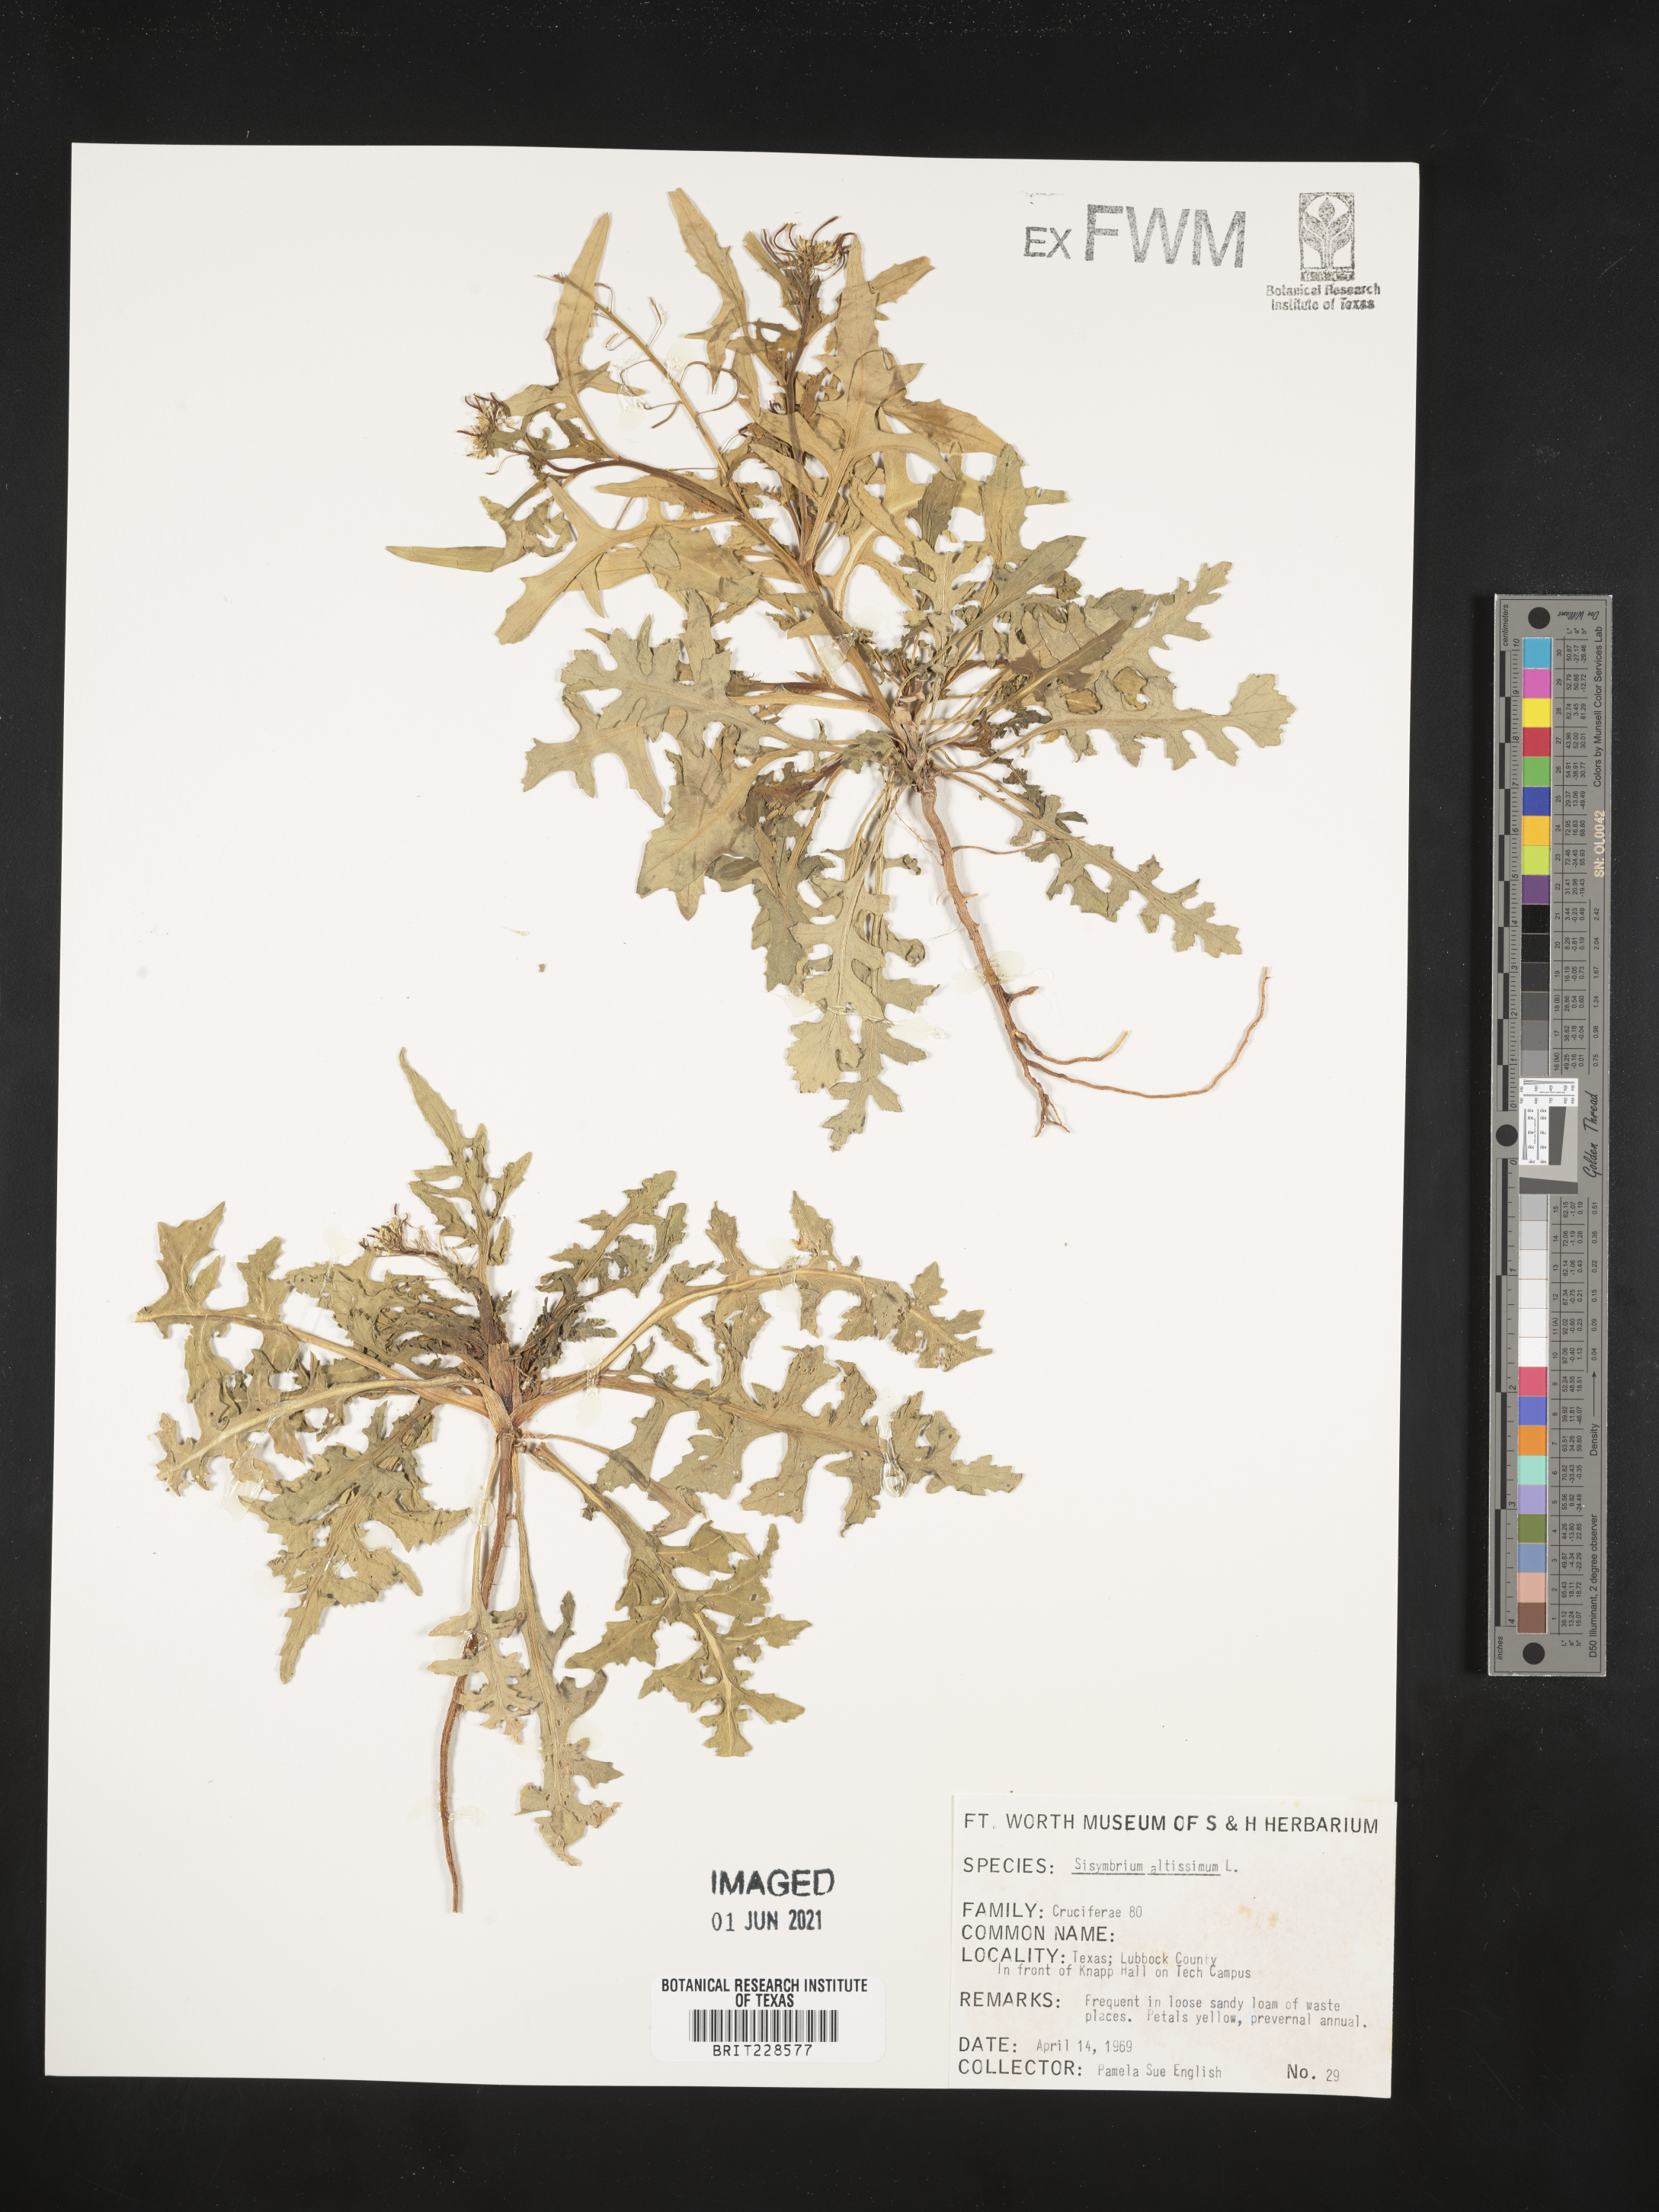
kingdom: Plantae
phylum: Tracheophyta
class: Magnoliopsida
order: Brassicales
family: Brassicaceae
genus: Sisymbrium
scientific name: Sisymbrium altissimum
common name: Tall rocket
